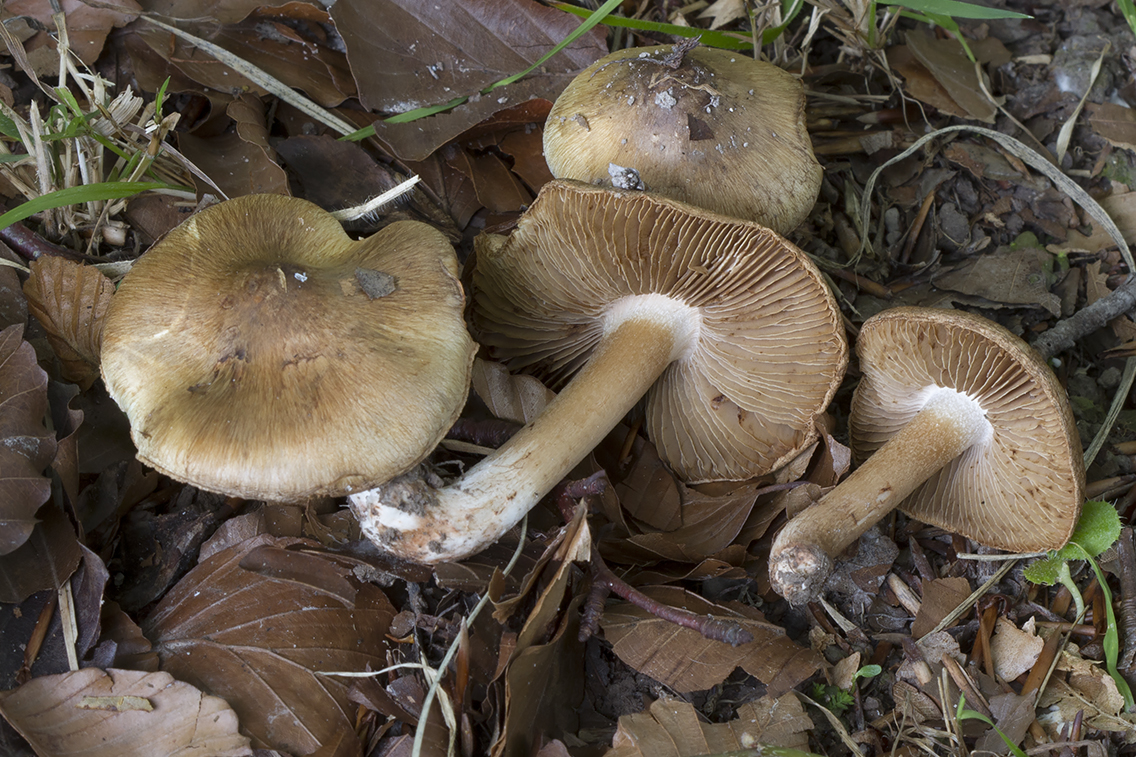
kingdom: Fungi
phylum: Basidiomycota
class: Agaricomycetes
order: Agaricales
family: Inocybaceae
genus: Inocybe
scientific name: Inocybe incarnata
